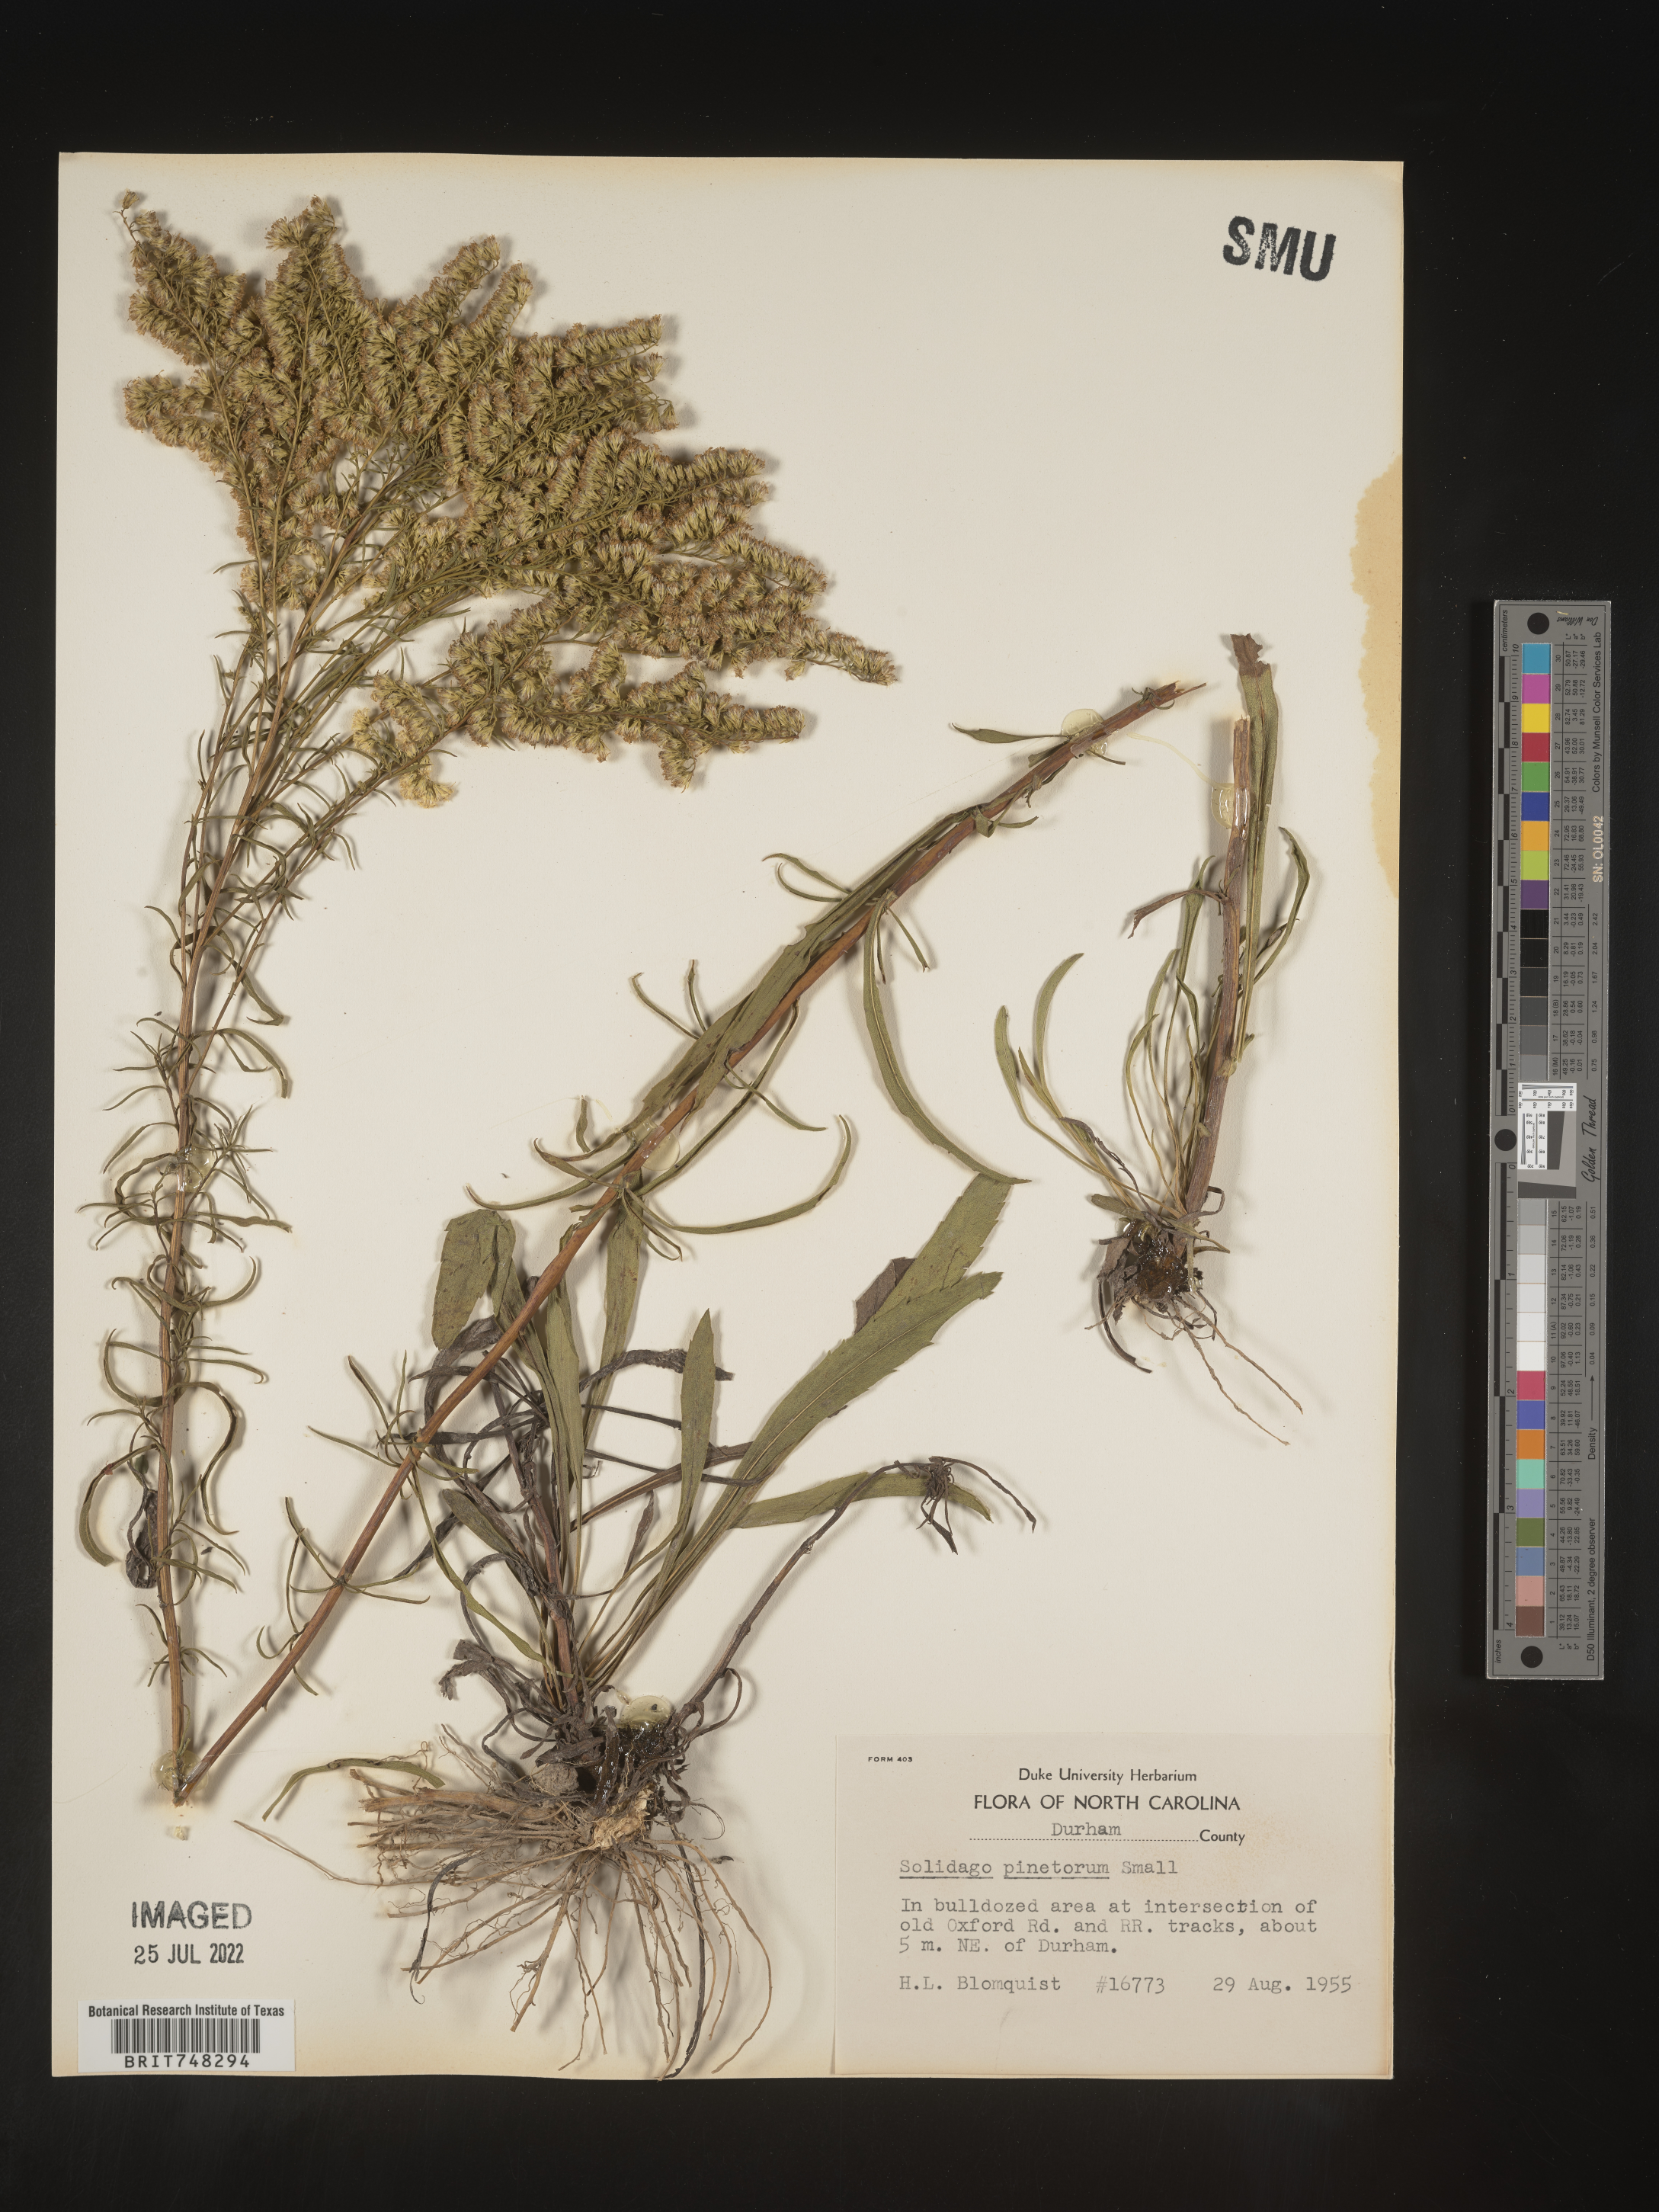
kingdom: Plantae
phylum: Tracheophyta
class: Magnoliopsida
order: Asterales
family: Asteraceae
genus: Solidago
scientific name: Solidago pinetorum
